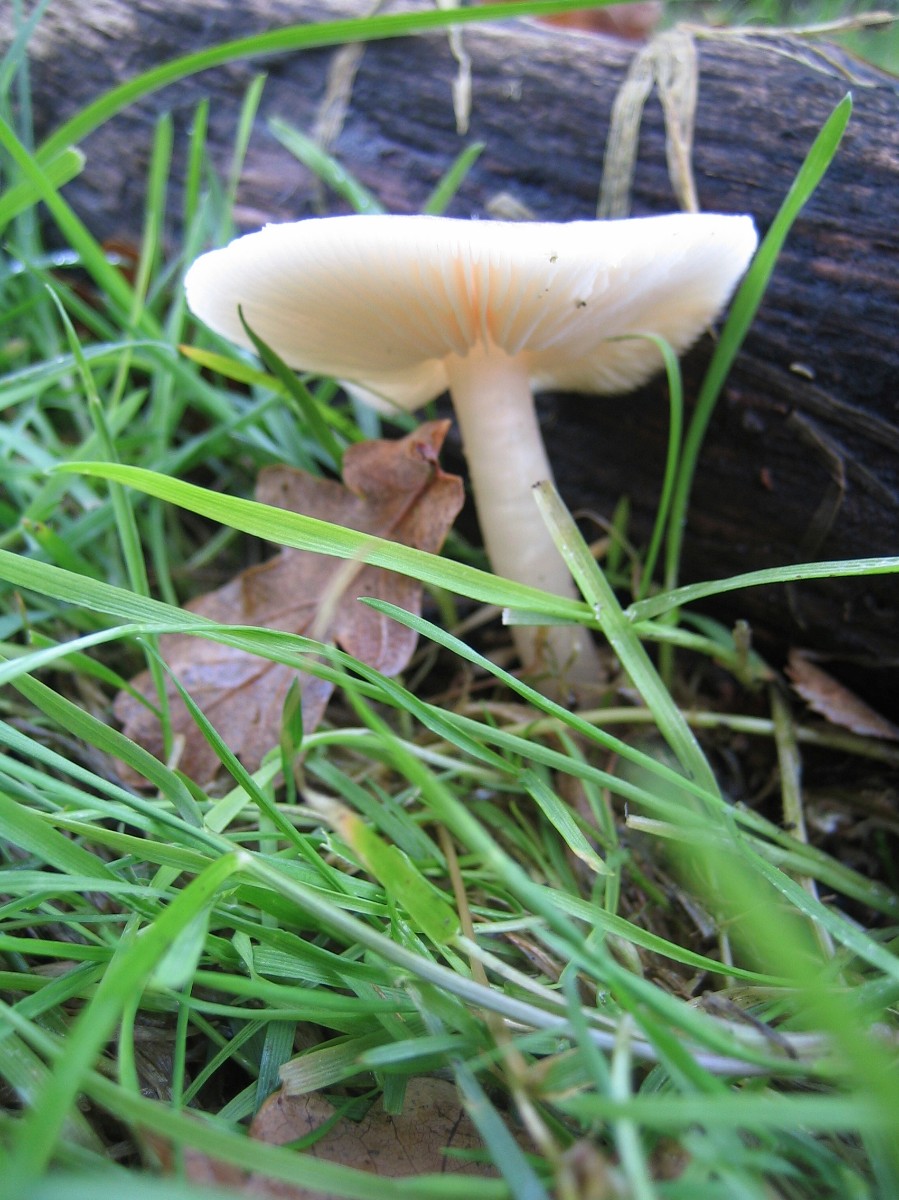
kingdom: Fungi
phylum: Basidiomycota
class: Agaricomycetes
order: Agaricales
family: Tricholomataceae
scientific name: Tricholomataceae
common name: ridderhatfamilien
